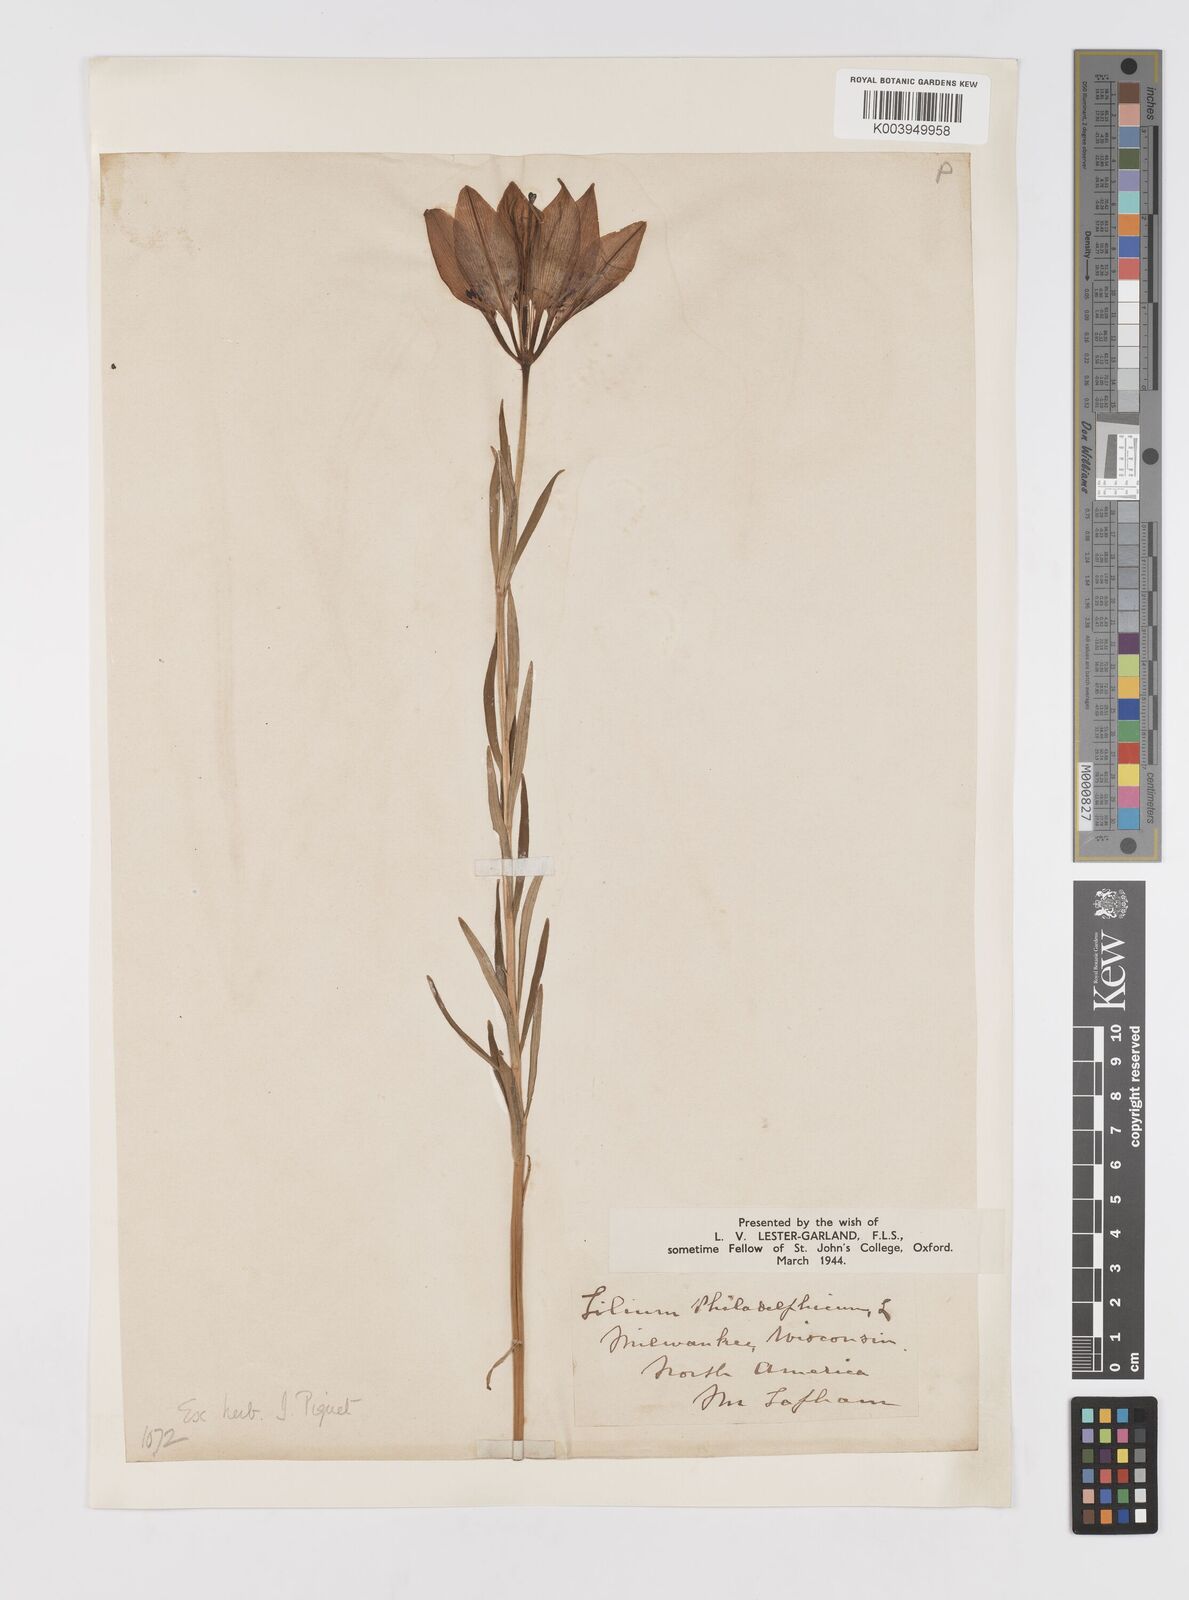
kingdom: Plantae
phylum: Tracheophyta
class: Liliopsida
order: Liliales
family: Liliaceae
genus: Lilium
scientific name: Lilium philadelphicum
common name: Red lily
